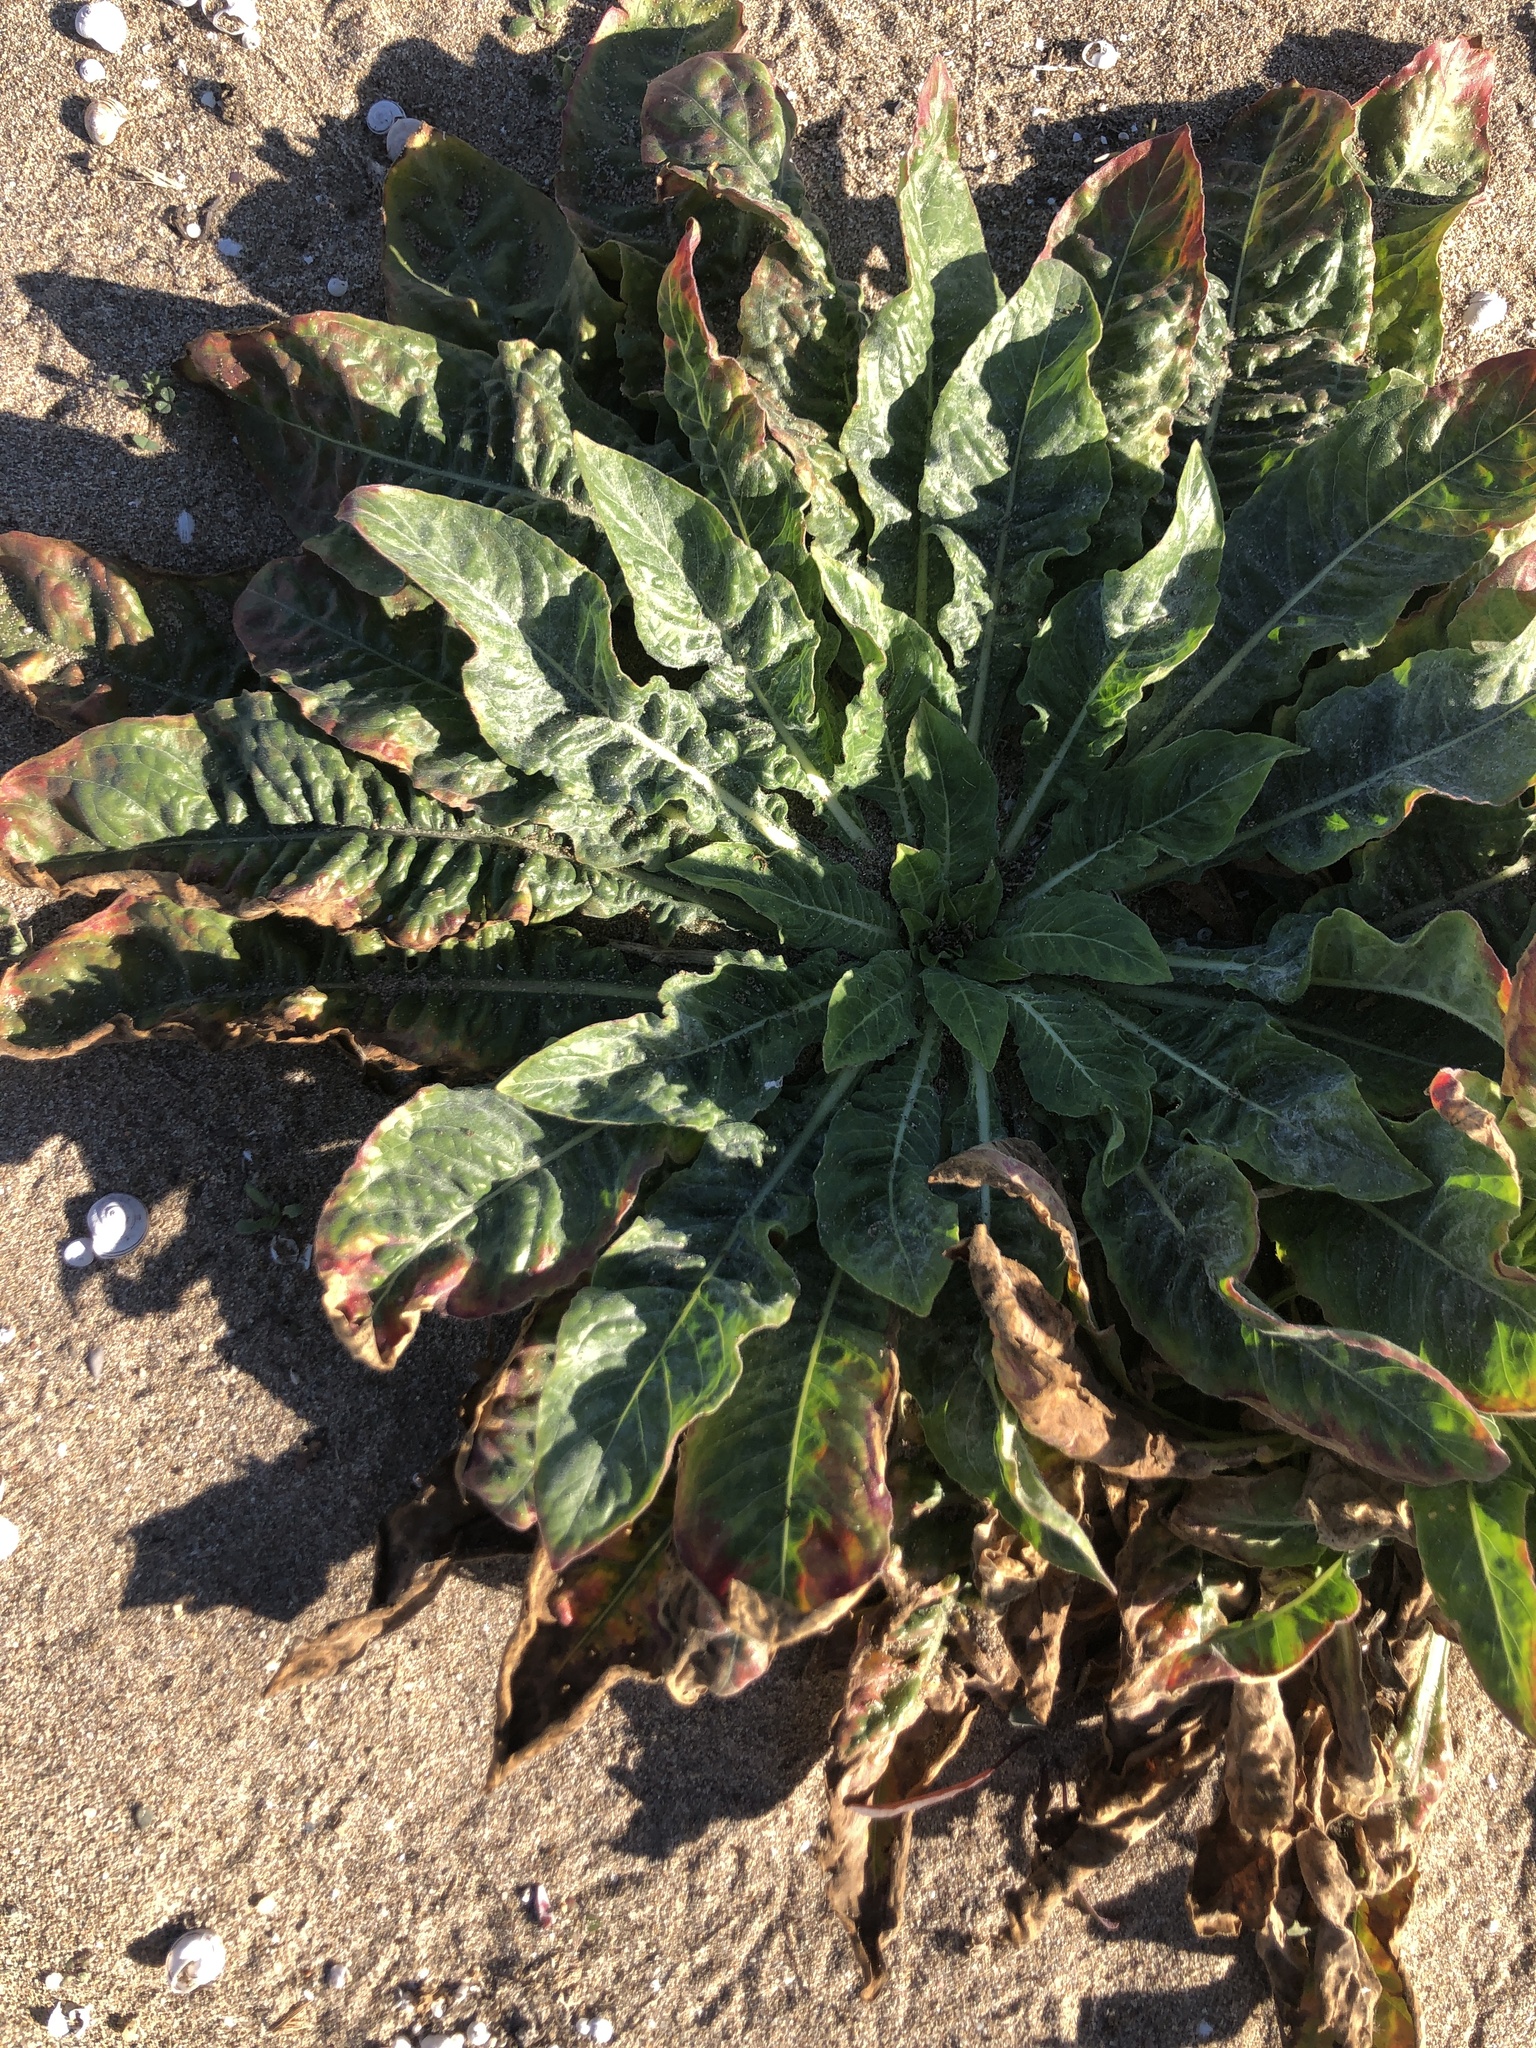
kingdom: Plantae
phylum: Tracheophyta
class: Magnoliopsida
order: Myrtales
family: Onagraceae
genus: Oenothera
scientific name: Oenothera glazioviana
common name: Large-flowered evening-primrose
